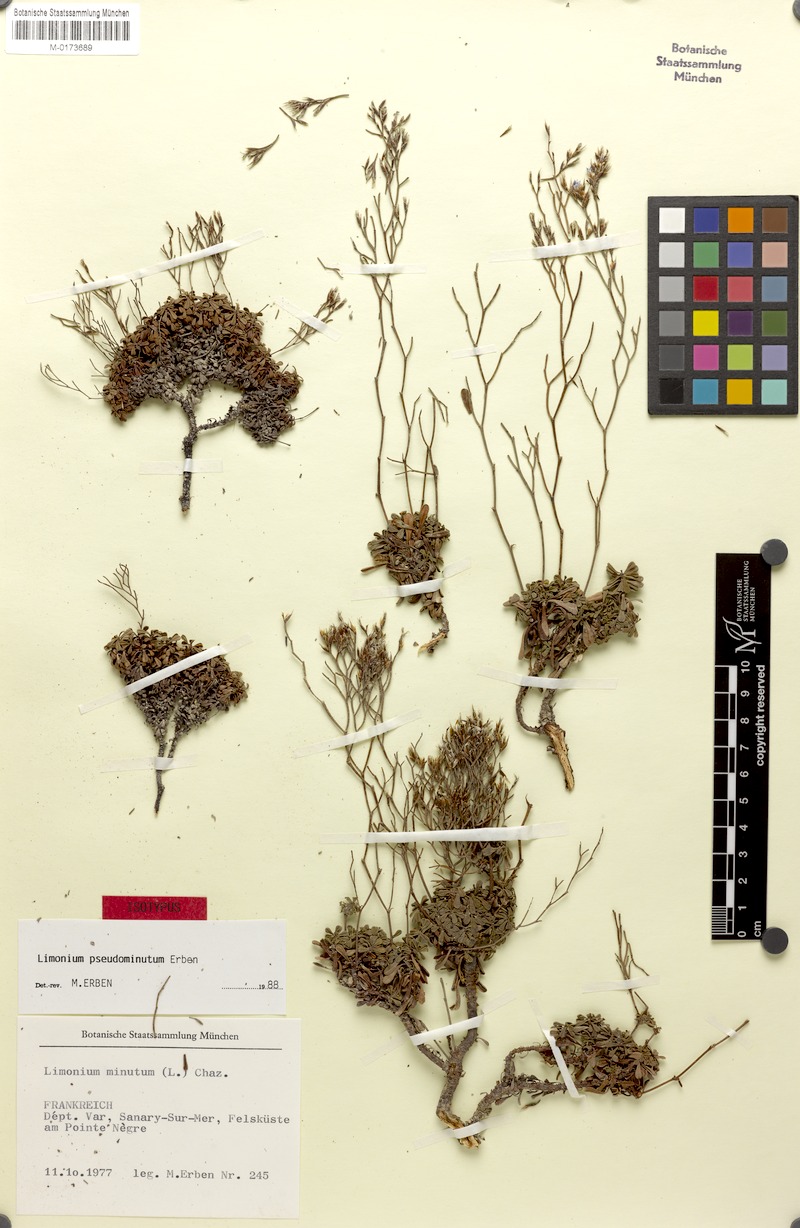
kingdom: Plantae
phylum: Tracheophyta
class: Magnoliopsida
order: Caryophyllales
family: Plumbaginaceae
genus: Limonium
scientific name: Limonium pseudominutum
